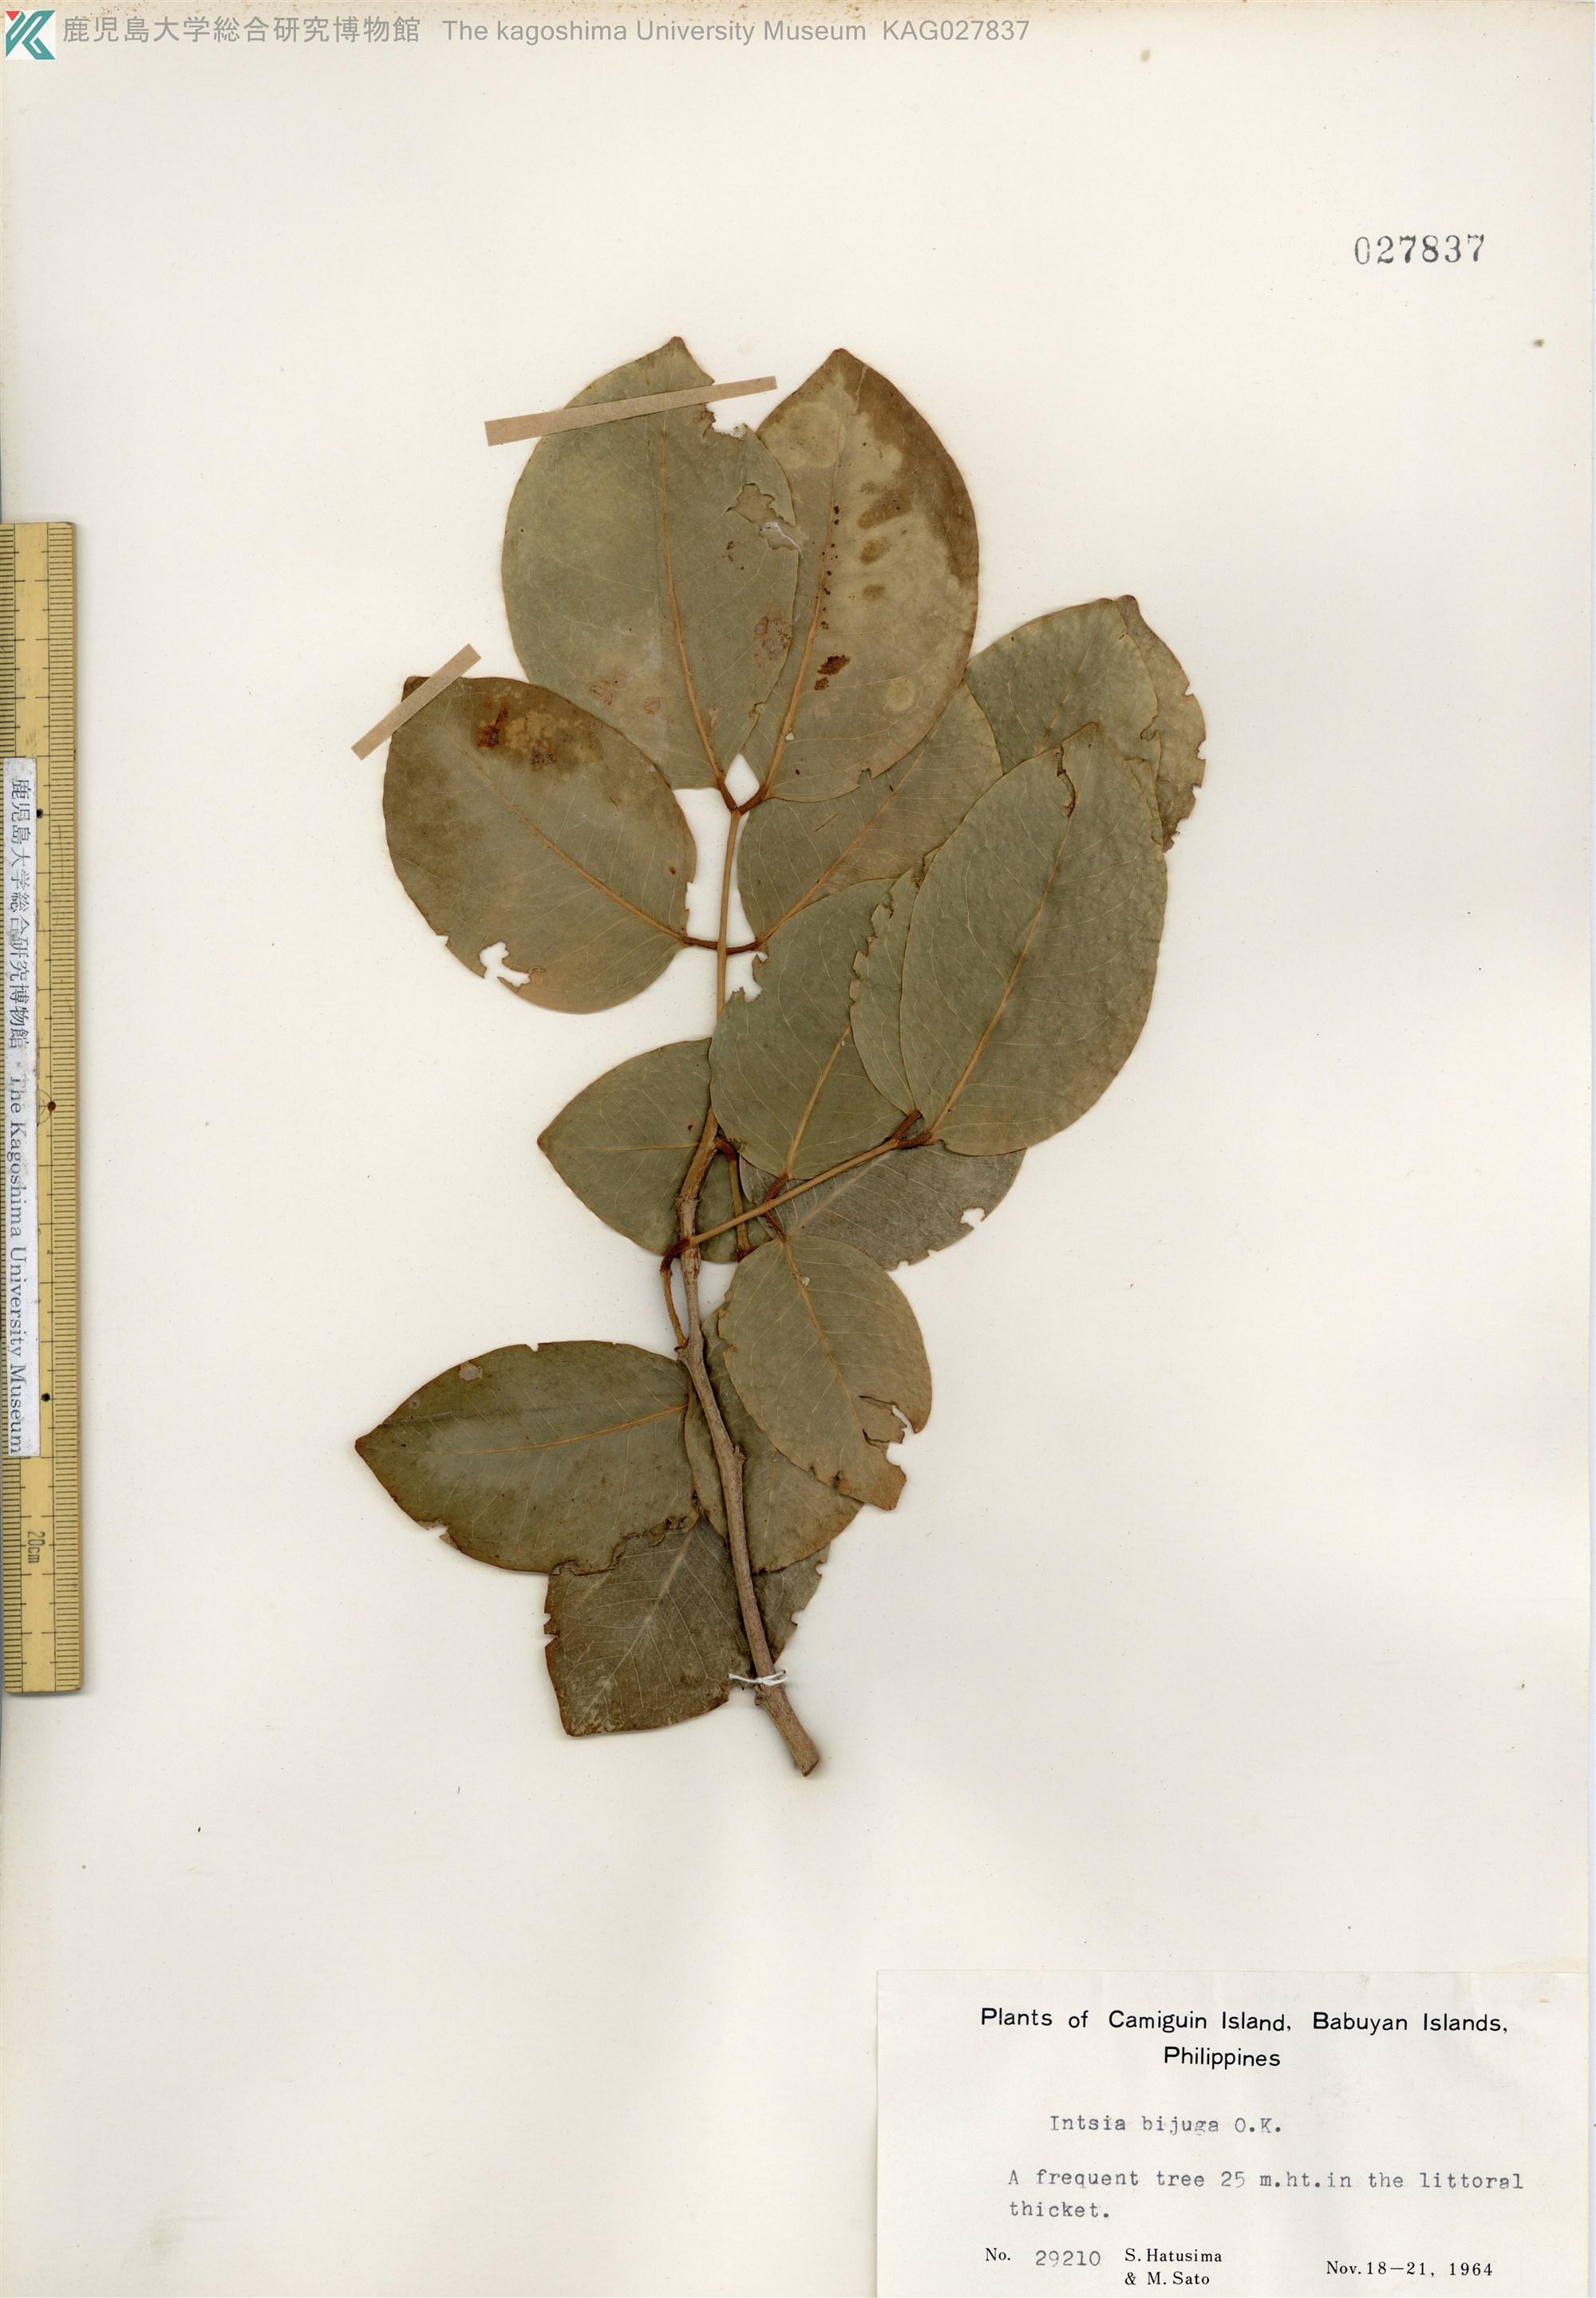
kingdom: Plantae
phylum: Tracheophyta
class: Magnoliopsida
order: Fabales
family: Fabaceae
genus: Intsia
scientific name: Intsia bijuga
